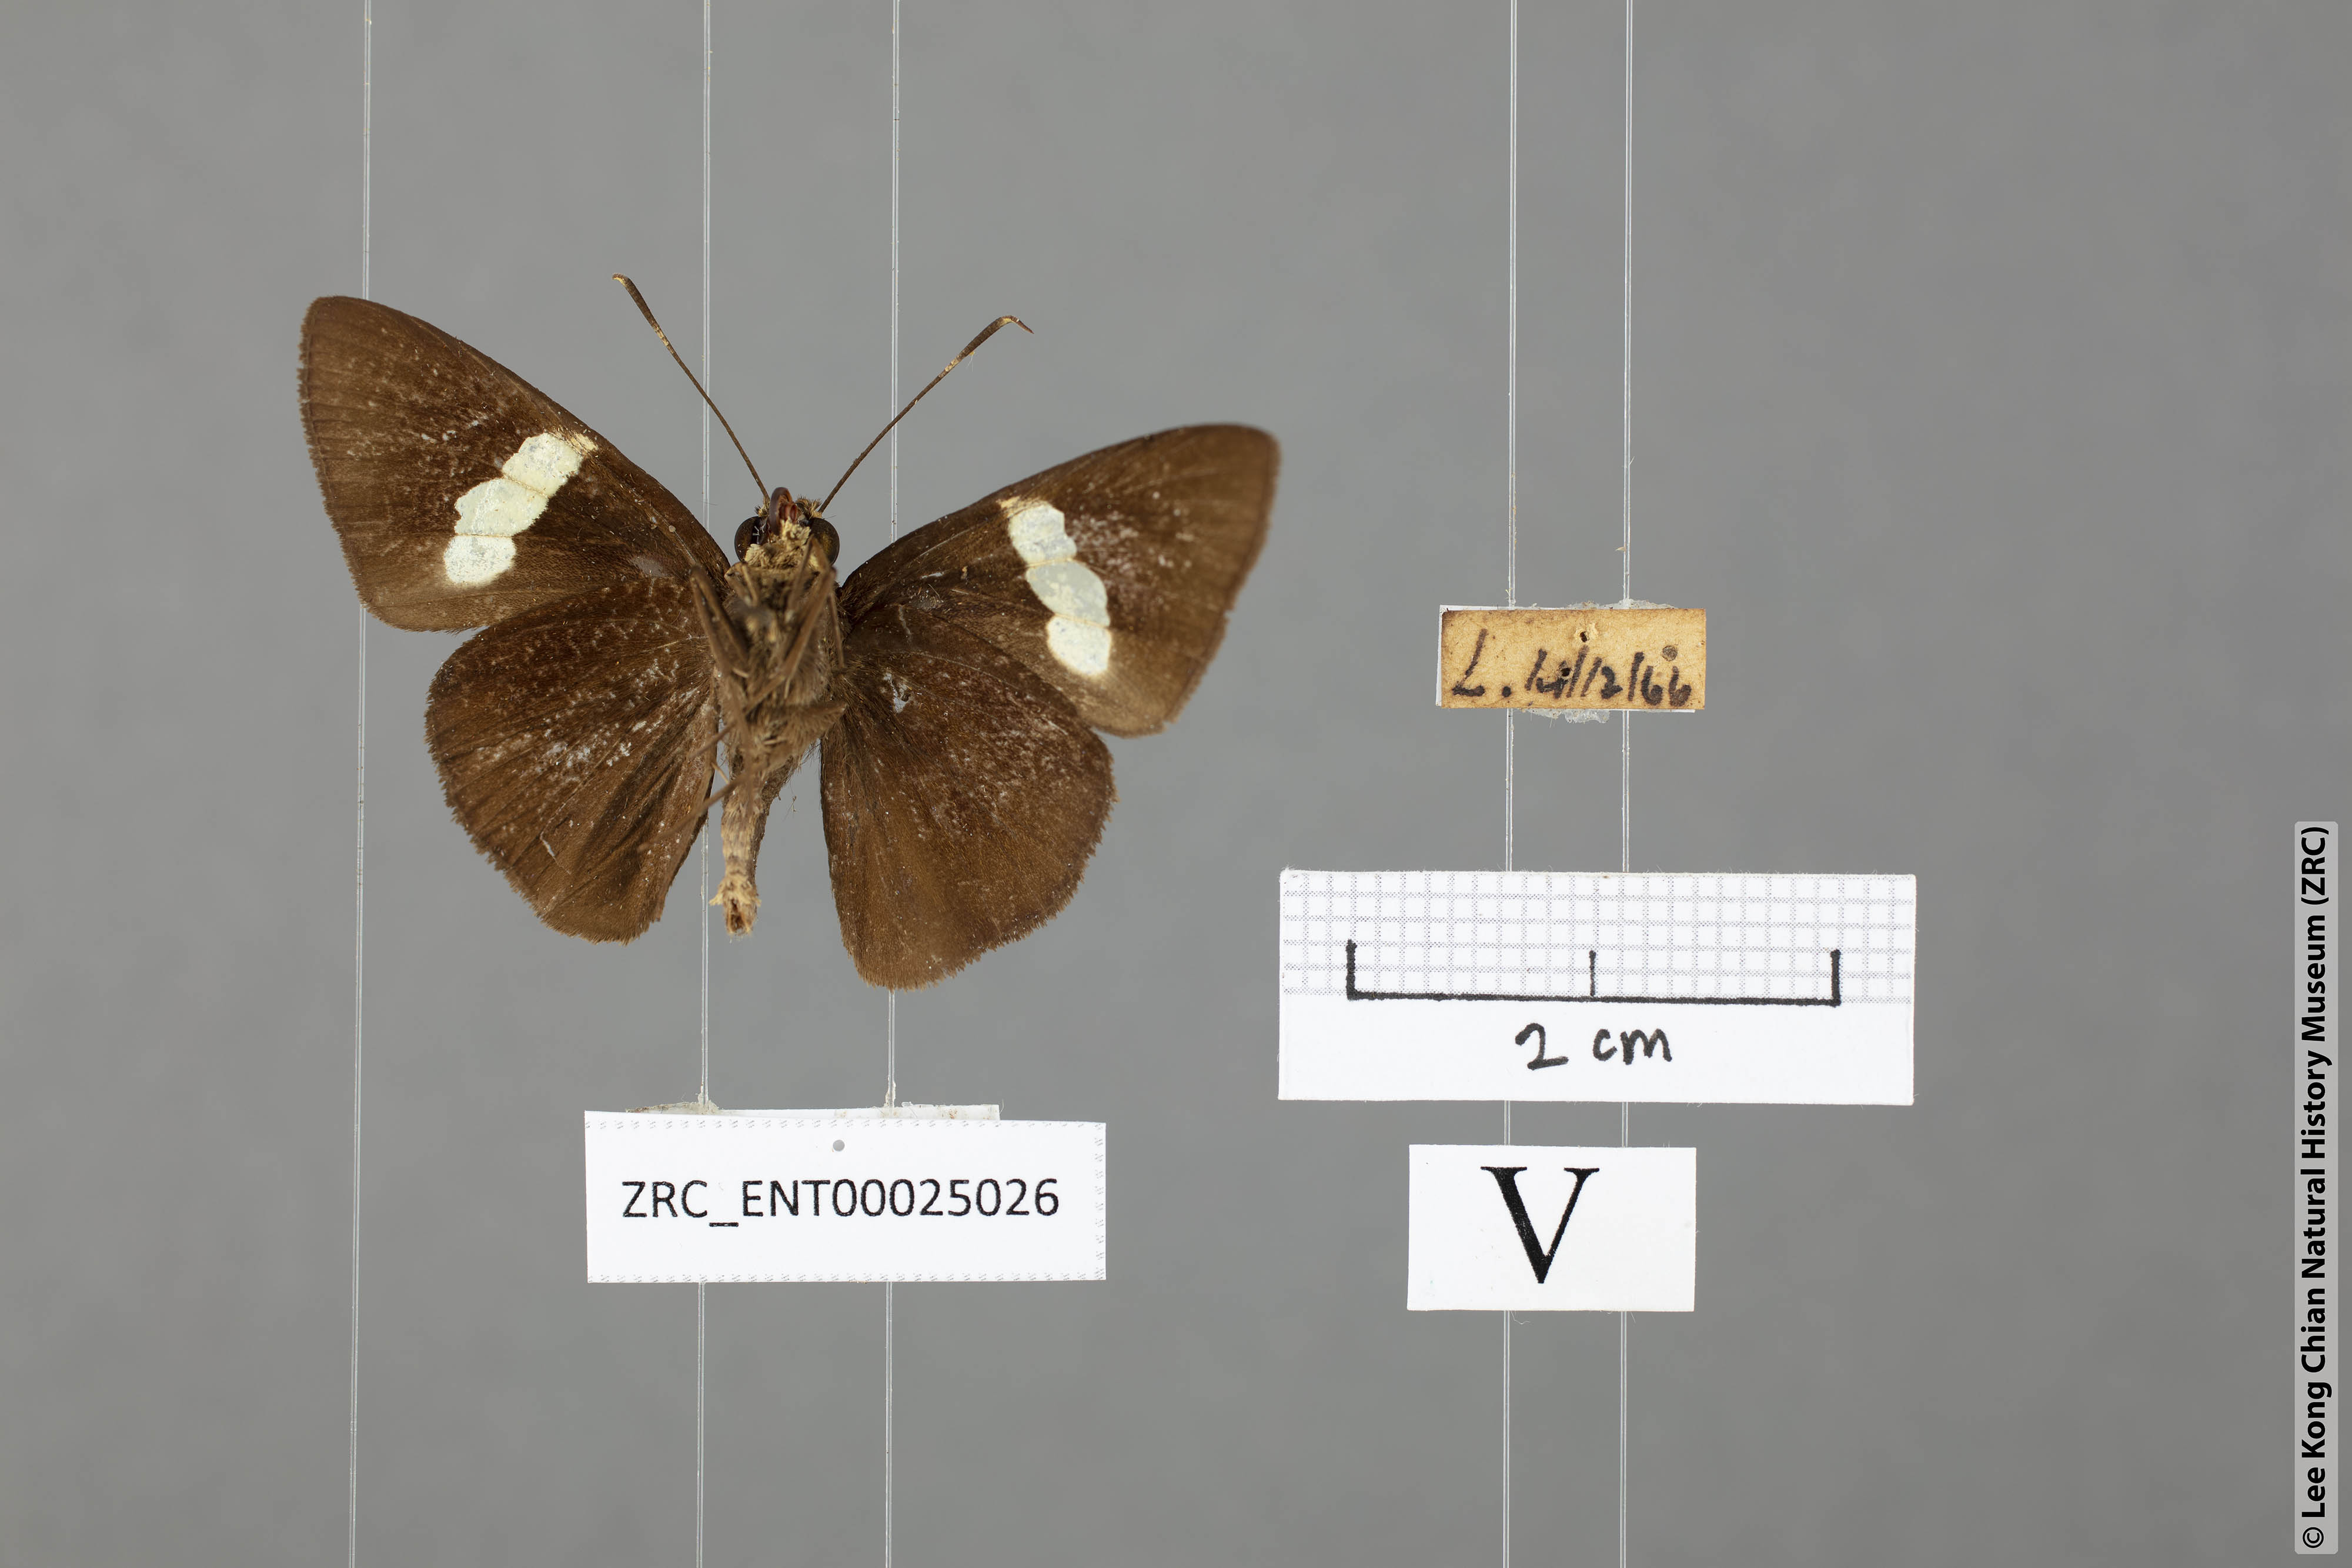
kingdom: Animalia
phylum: Arthropoda
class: Insecta
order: Lepidoptera
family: Hesperiidae
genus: Notocrypta
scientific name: Notocrypta paralysos
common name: Common banded demon
